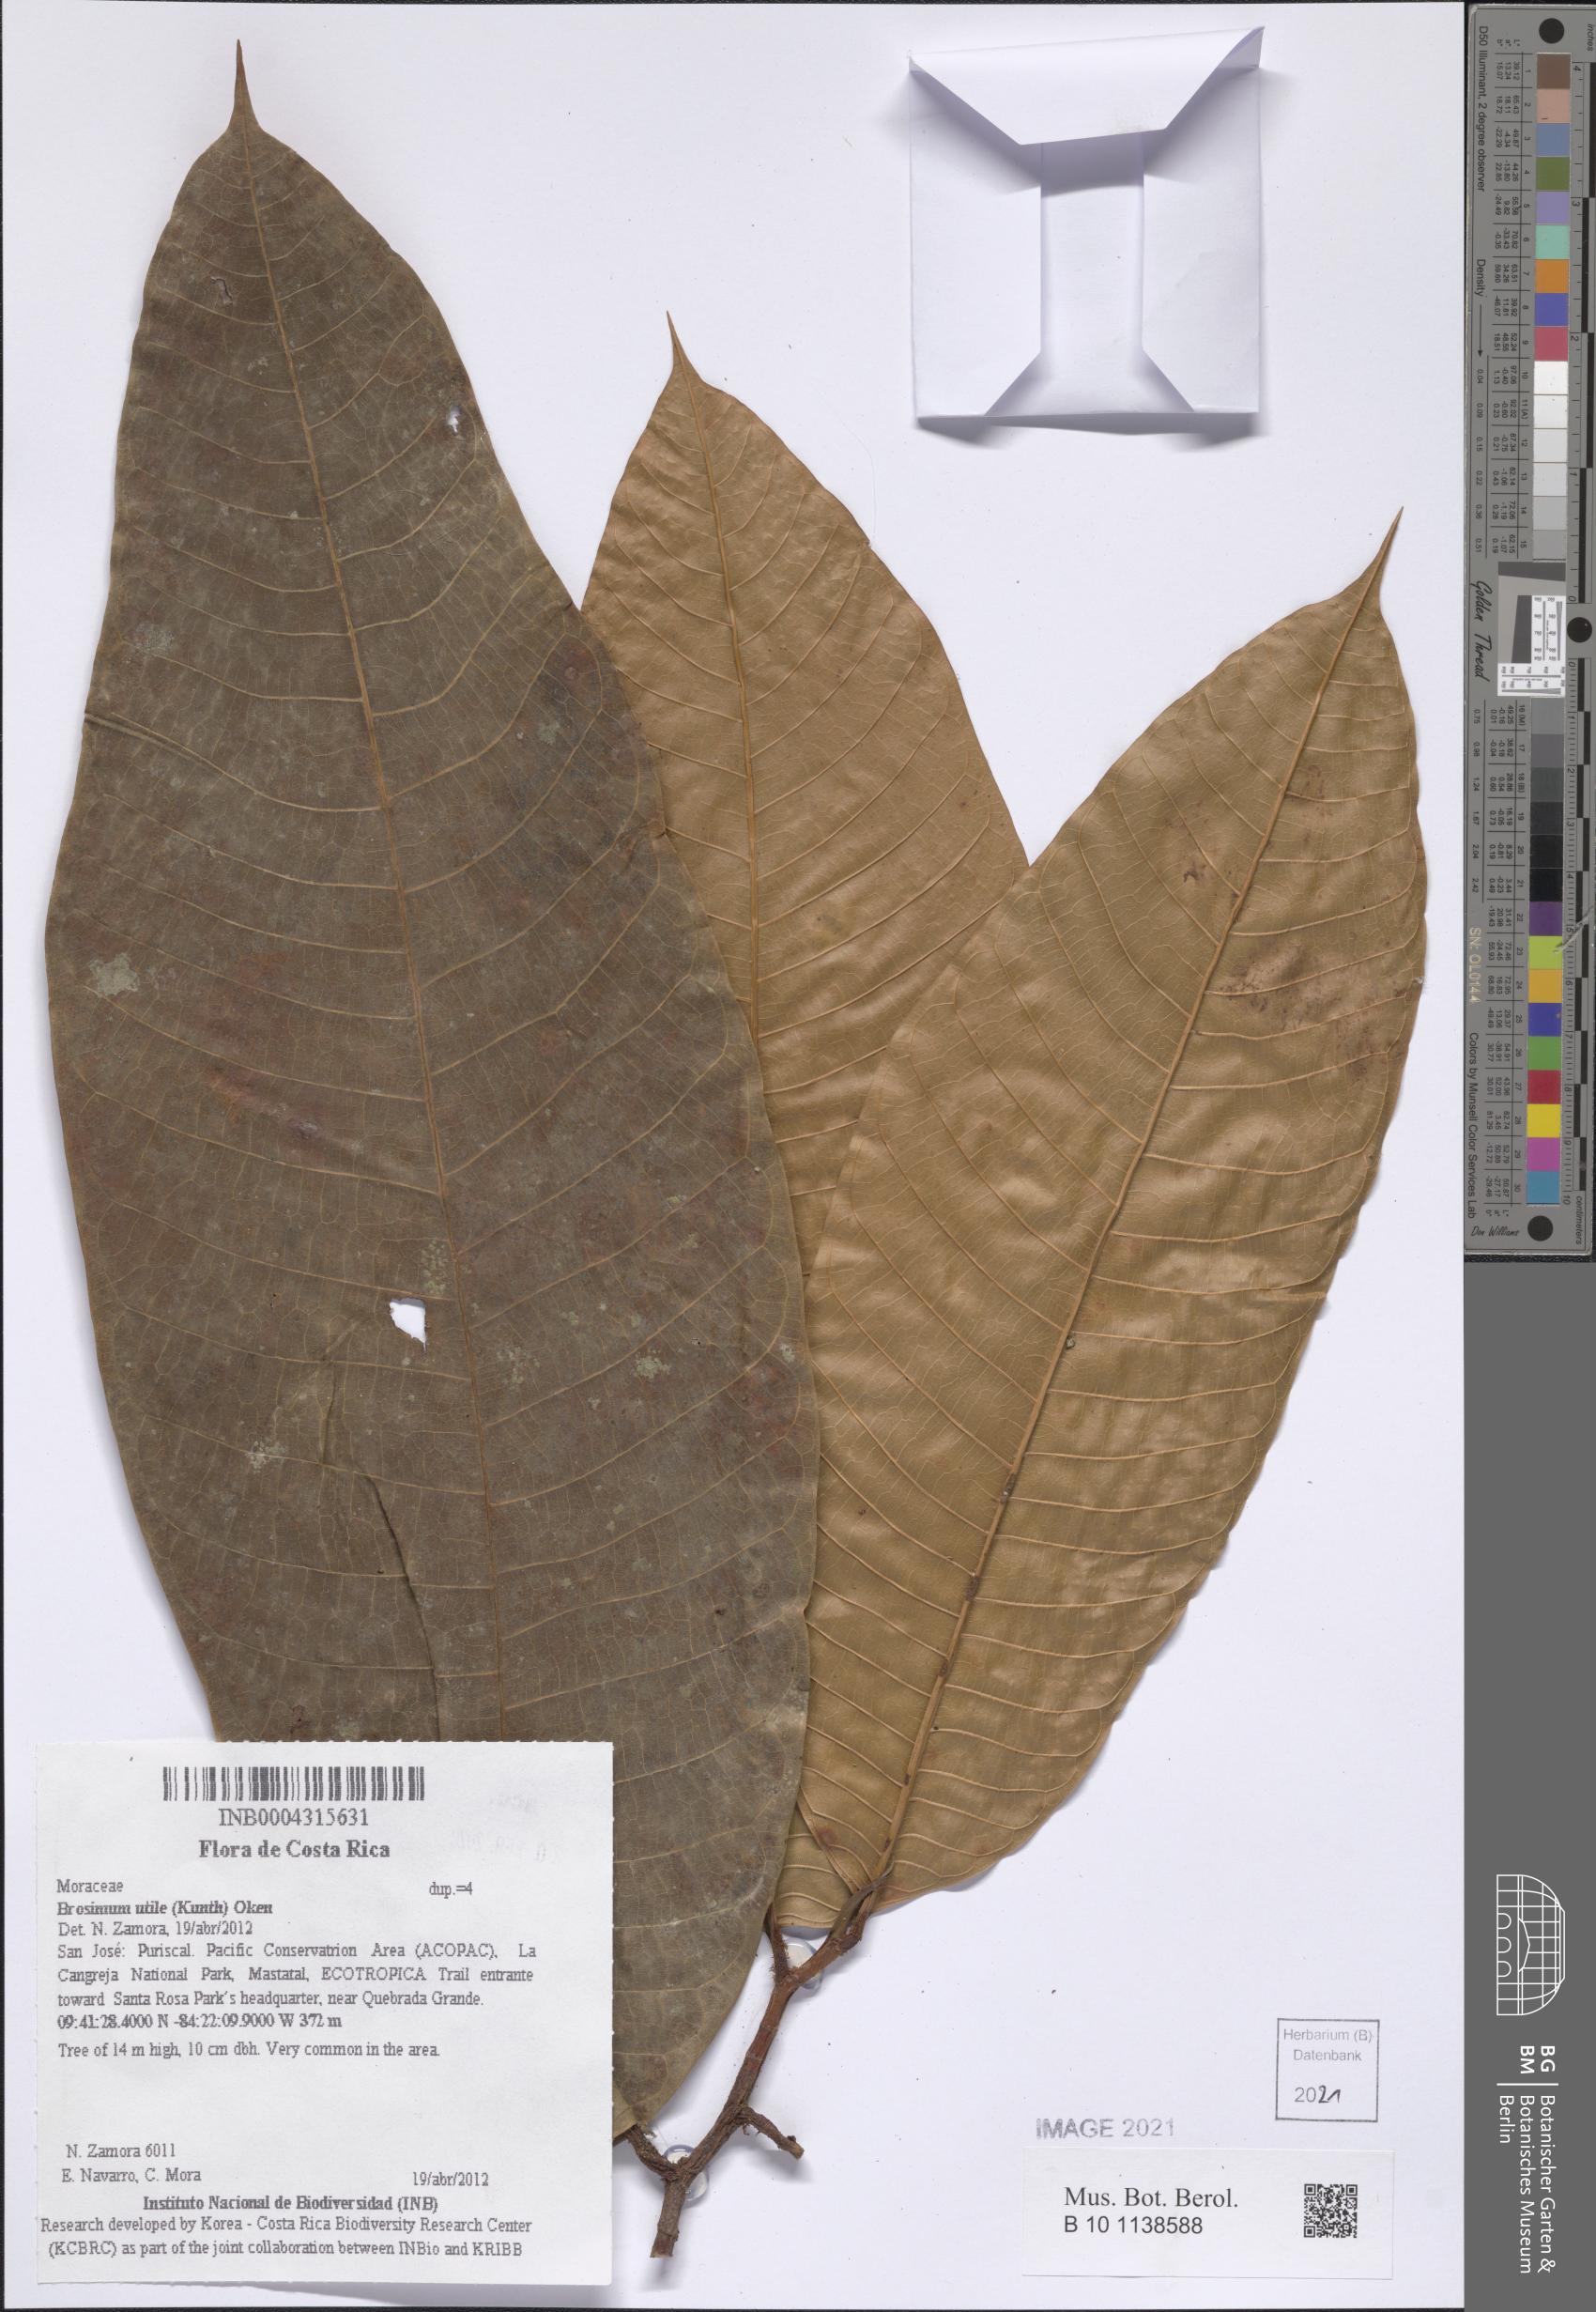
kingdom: Plantae
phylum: Tracheophyta
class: Magnoliopsida
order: Rosales
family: Moraceae
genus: Brosimum
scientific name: Brosimum utile
